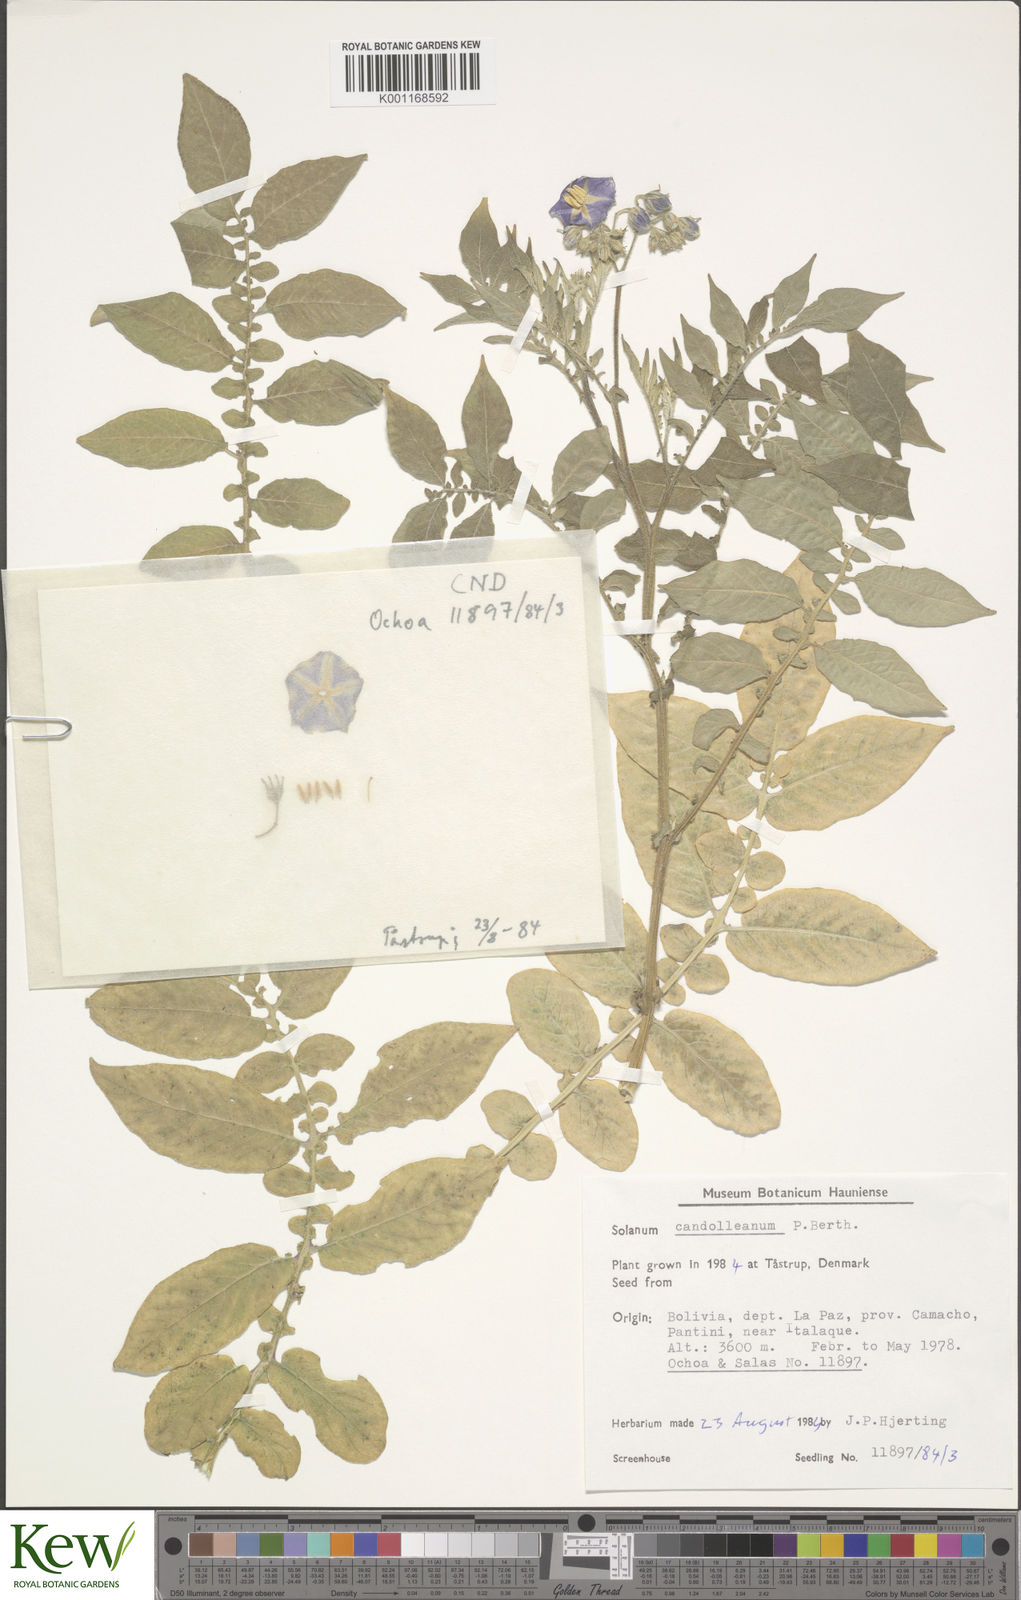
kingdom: Plantae
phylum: Tracheophyta
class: Magnoliopsida
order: Solanales
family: Solanaceae
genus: Solanum
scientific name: Solanum candolleanum
